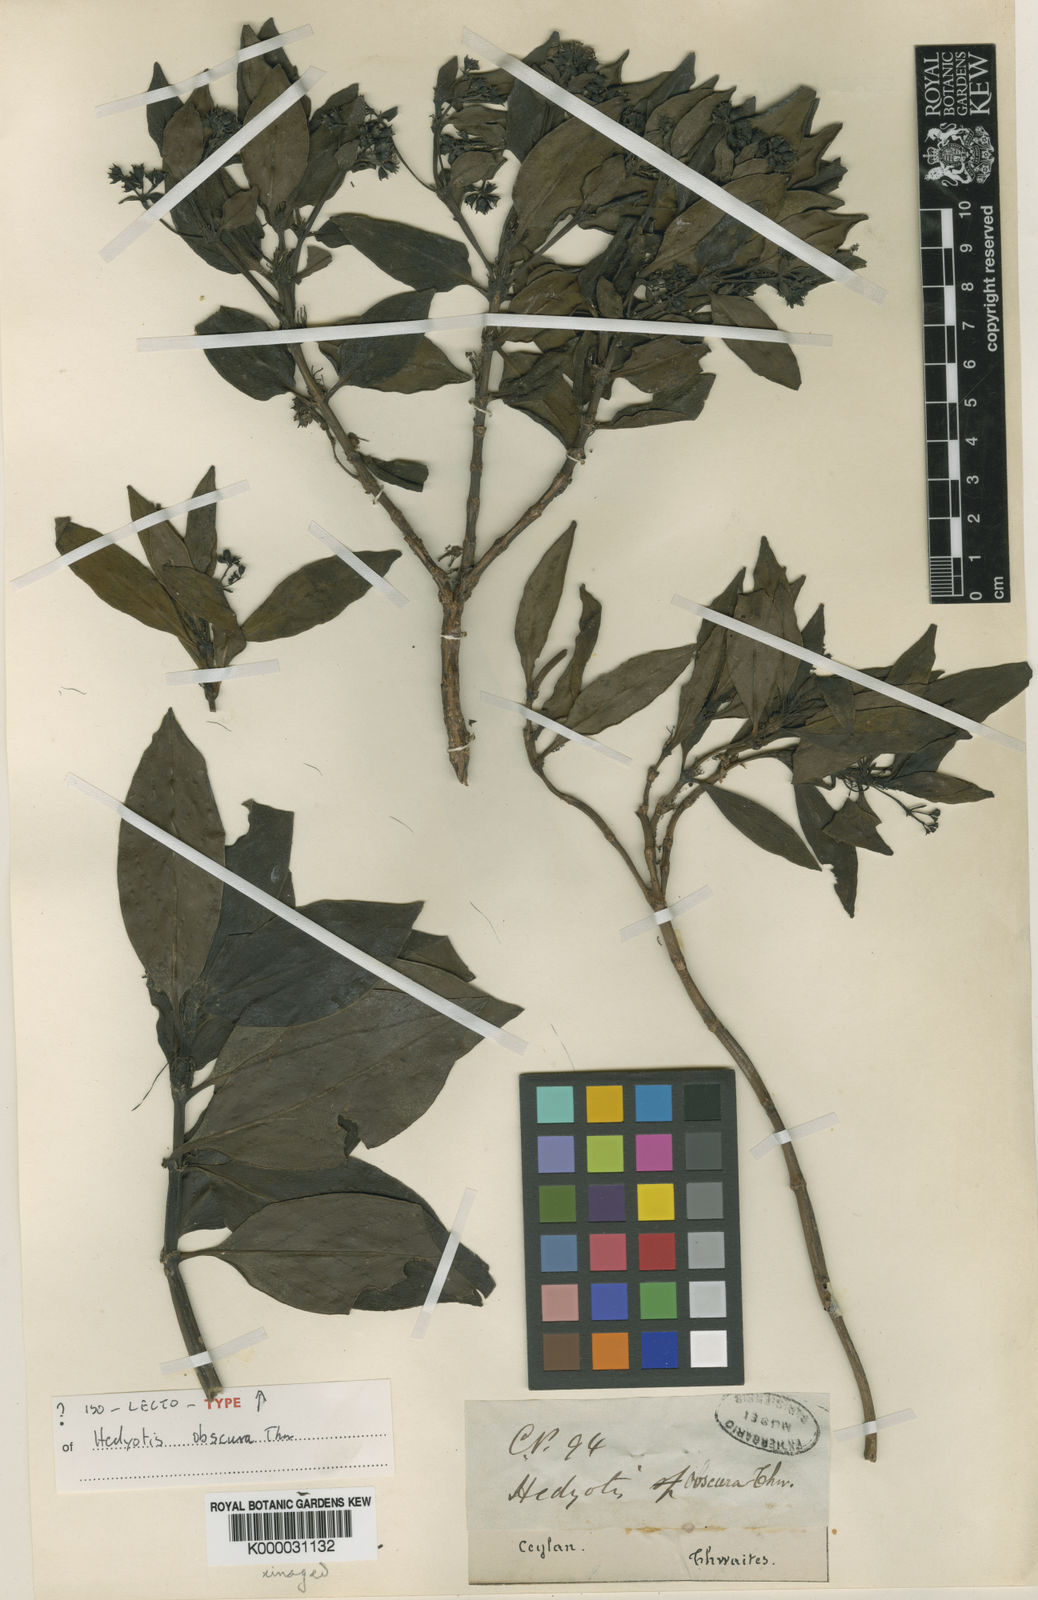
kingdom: Plantae
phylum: Tracheophyta
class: Magnoliopsida
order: Gentianales
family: Rubiaceae
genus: Hedyotis
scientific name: Hedyotis tridentata
